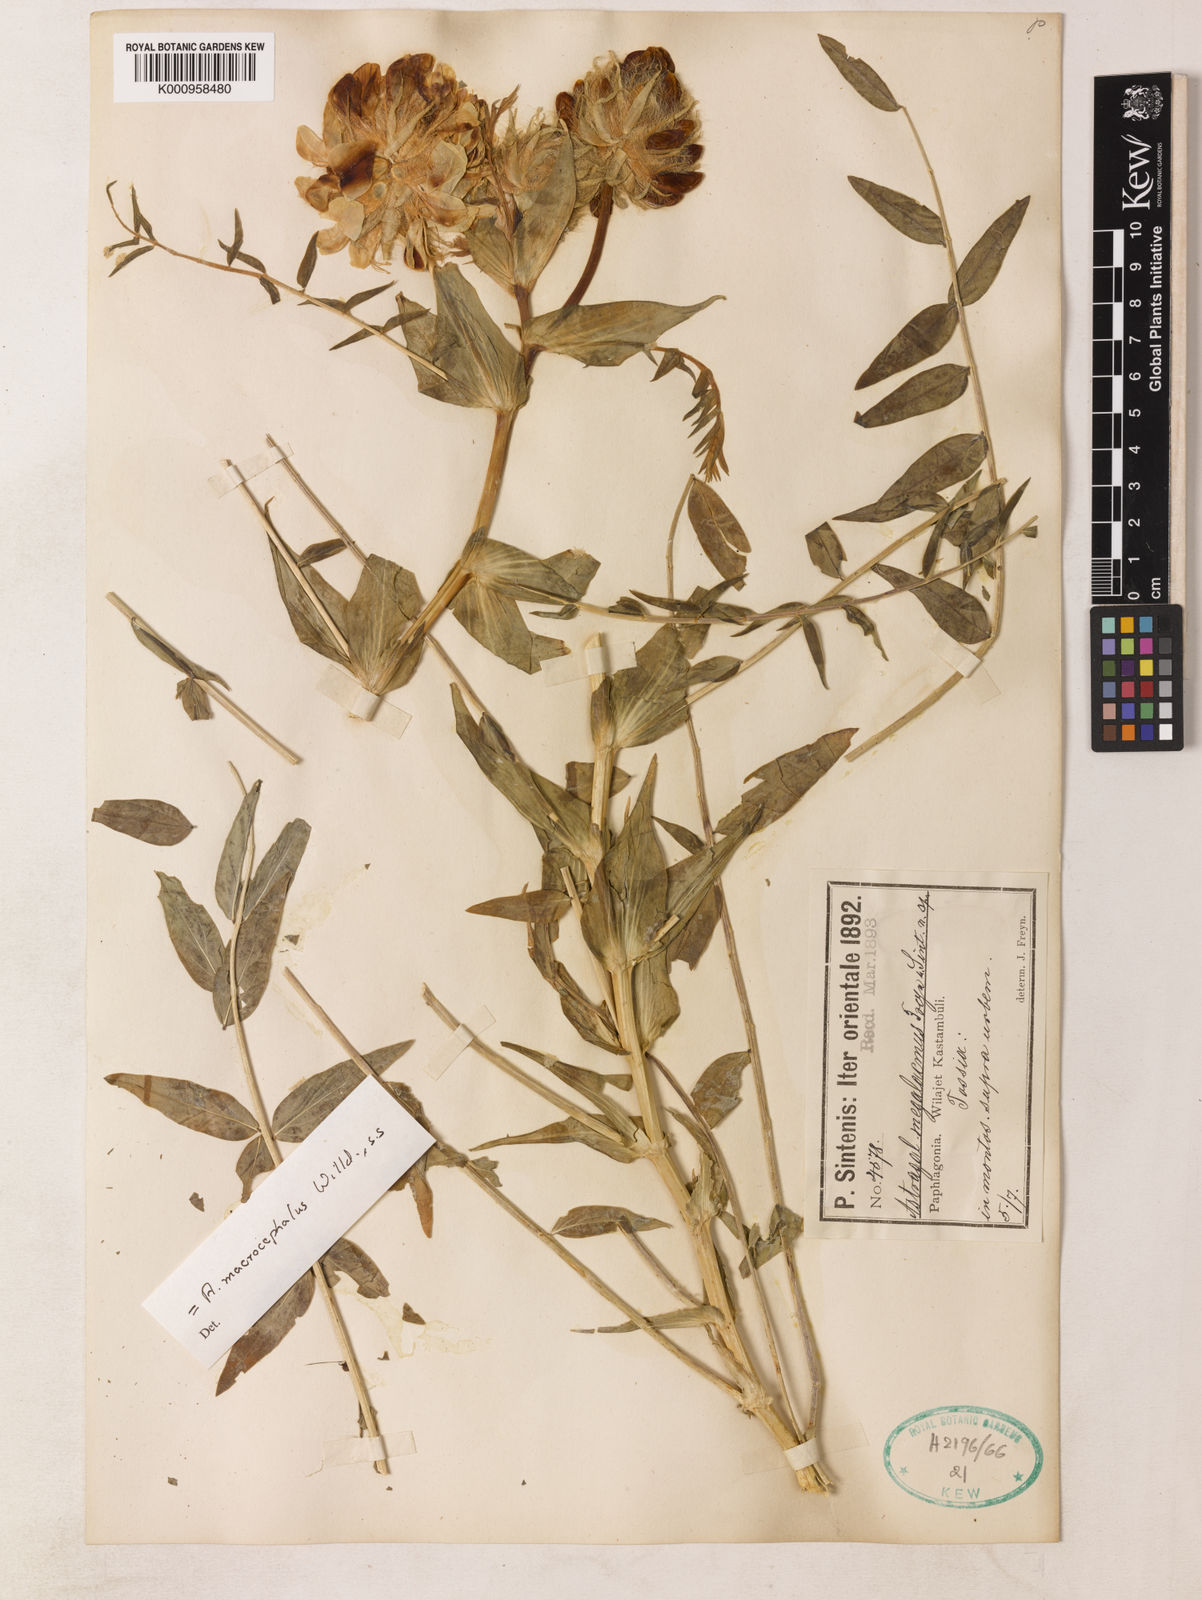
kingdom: Plantae
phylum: Tracheophyta
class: Magnoliopsida
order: Fabales
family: Fabaceae
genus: Astragalus
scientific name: Astragalus macrocephalus
